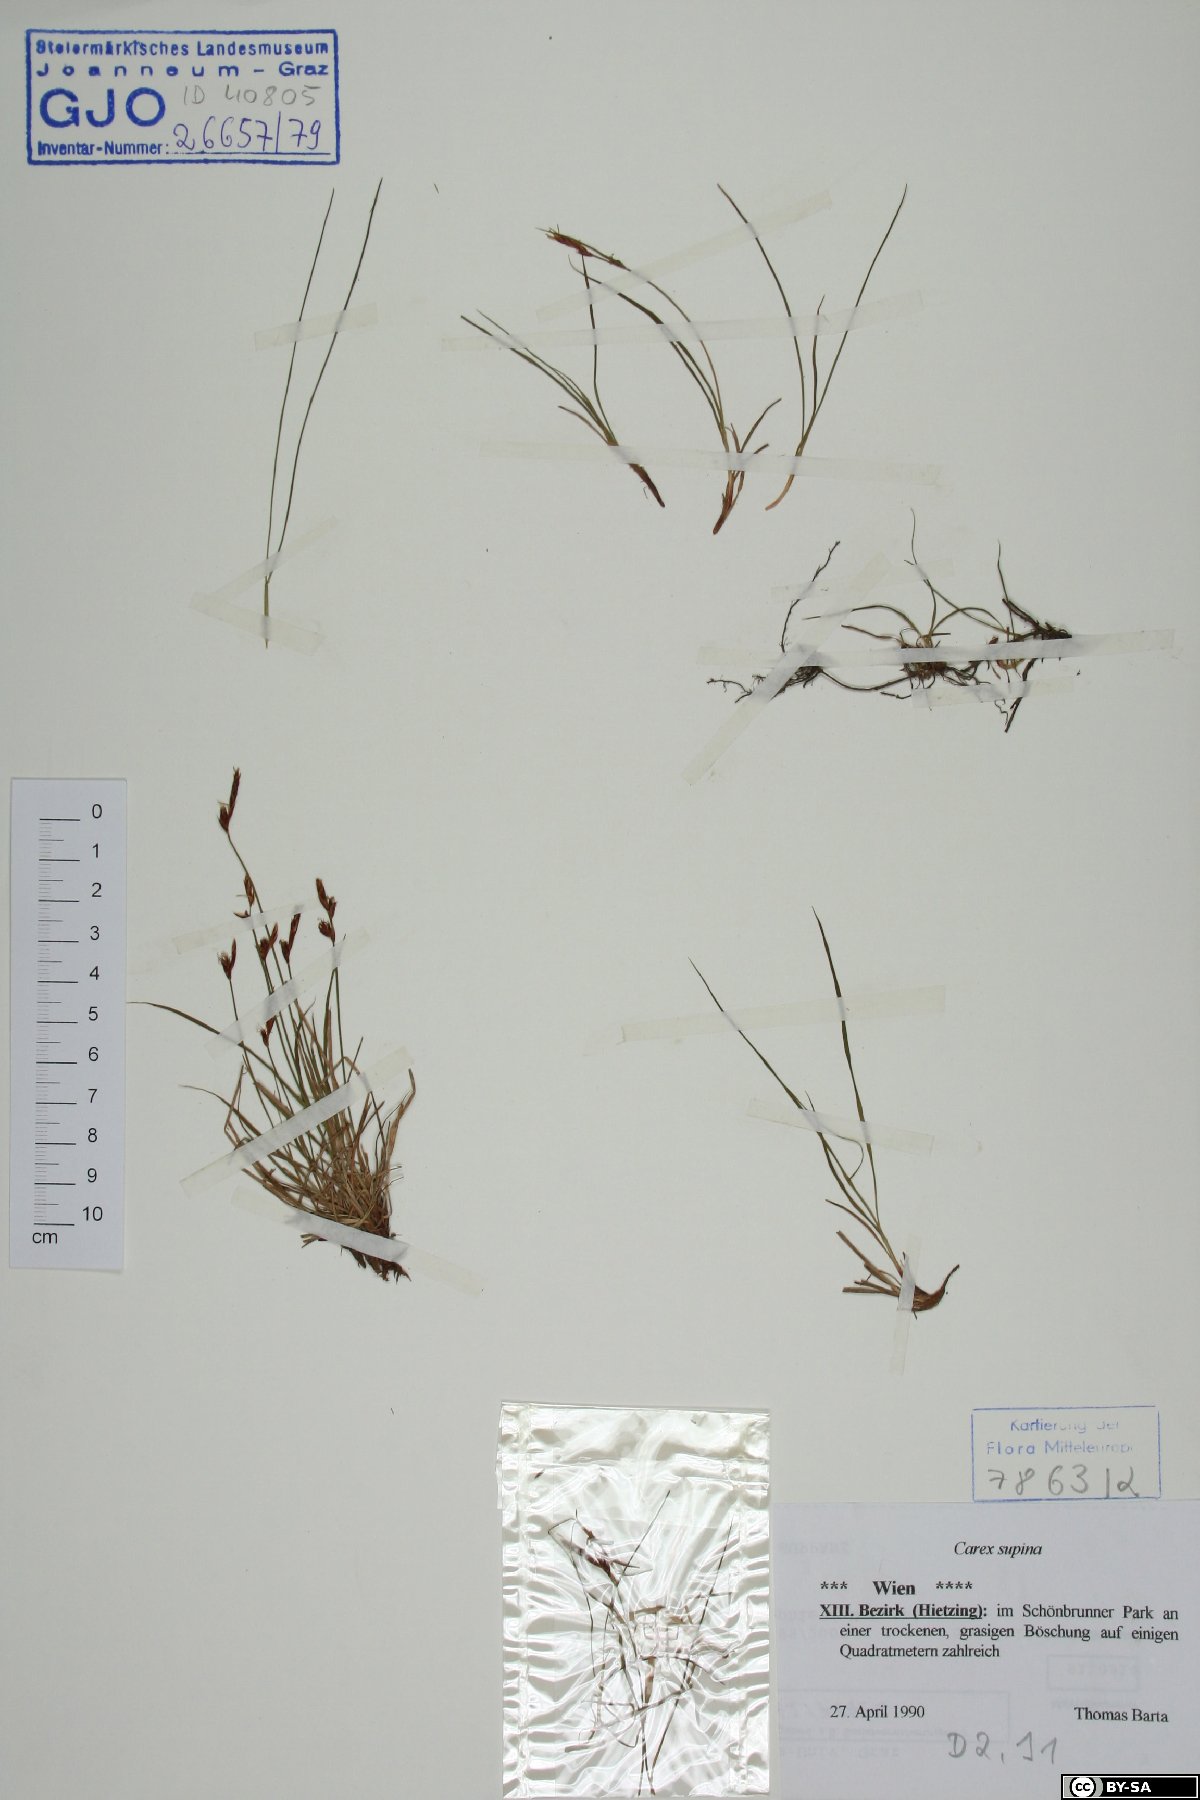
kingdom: Plantae
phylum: Tracheophyta
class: Liliopsida
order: Poales
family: Cyperaceae
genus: Carex
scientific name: Carex supina
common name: Lying-back sedge
